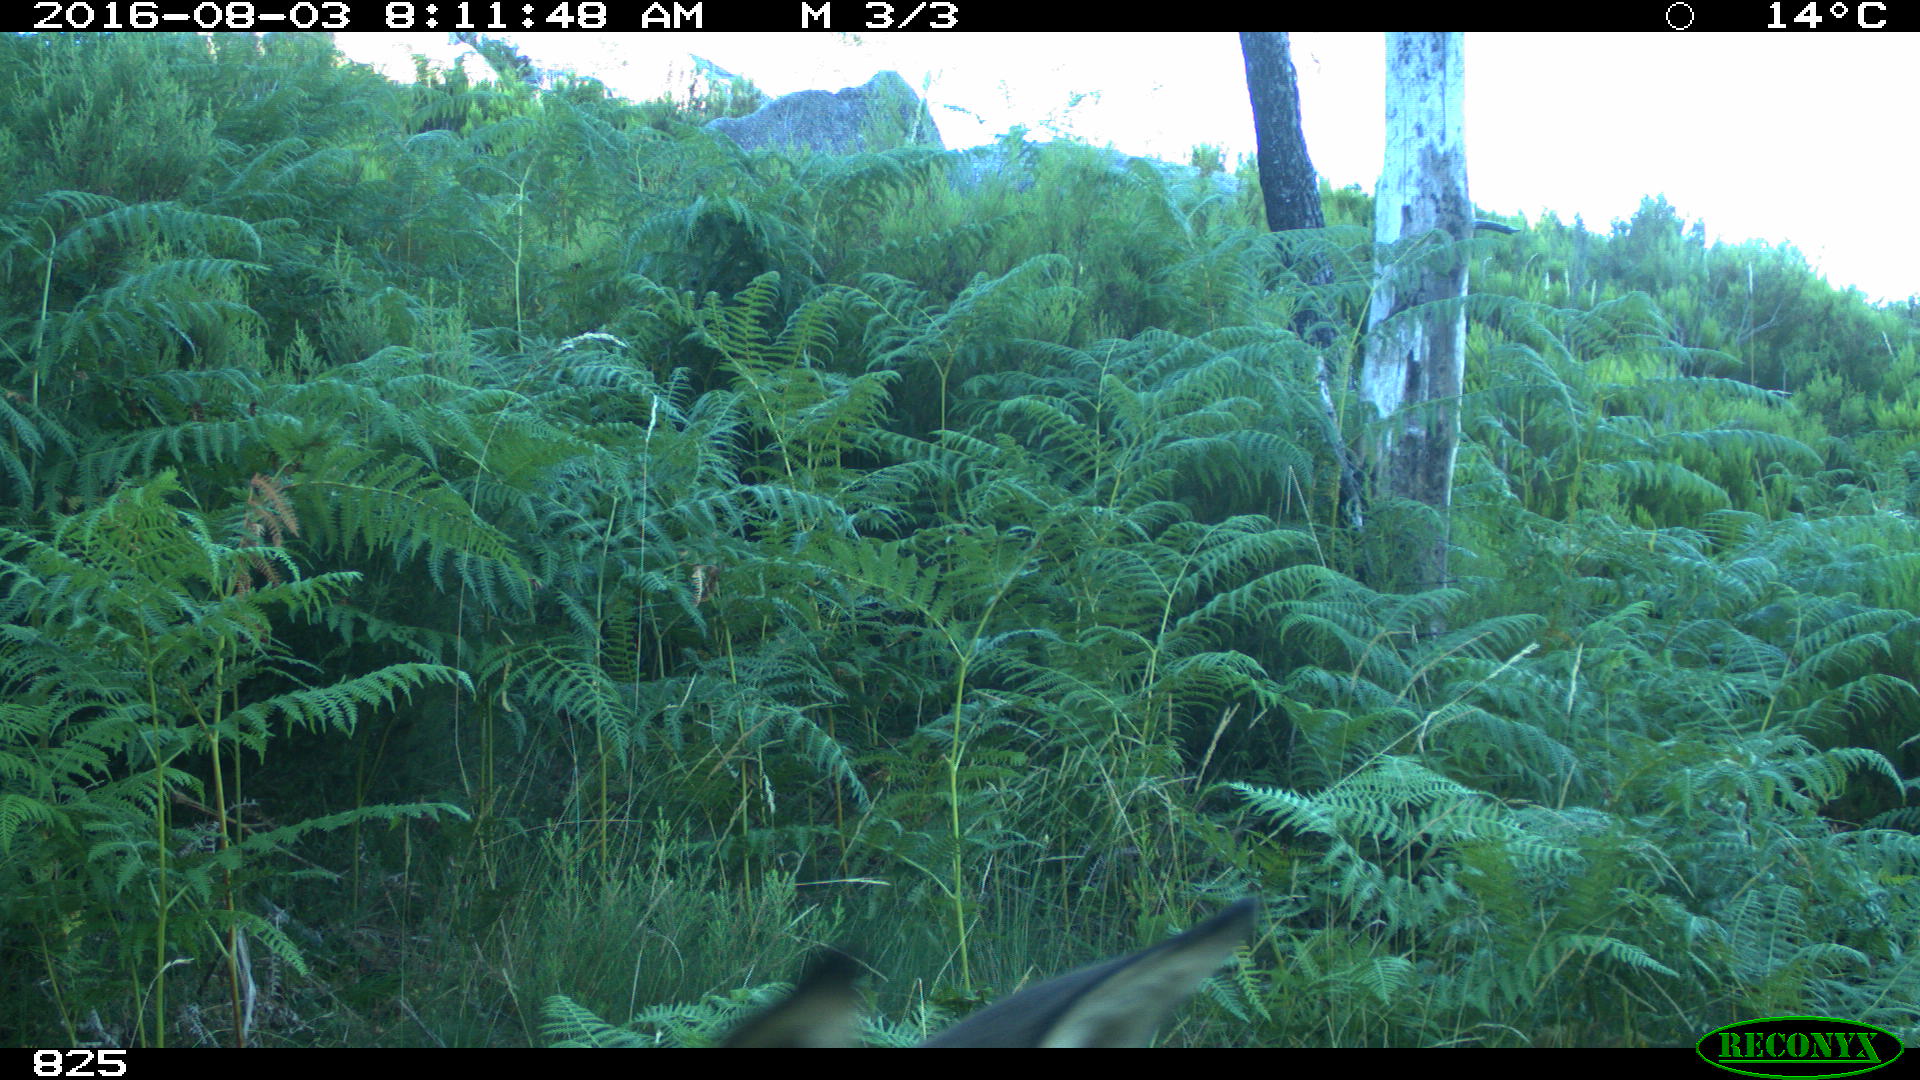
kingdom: Animalia
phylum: Chordata
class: Mammalia
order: Artiodactyla
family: Cervidae
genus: Capreolus
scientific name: Capreolus capreolus
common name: Western roe deer
